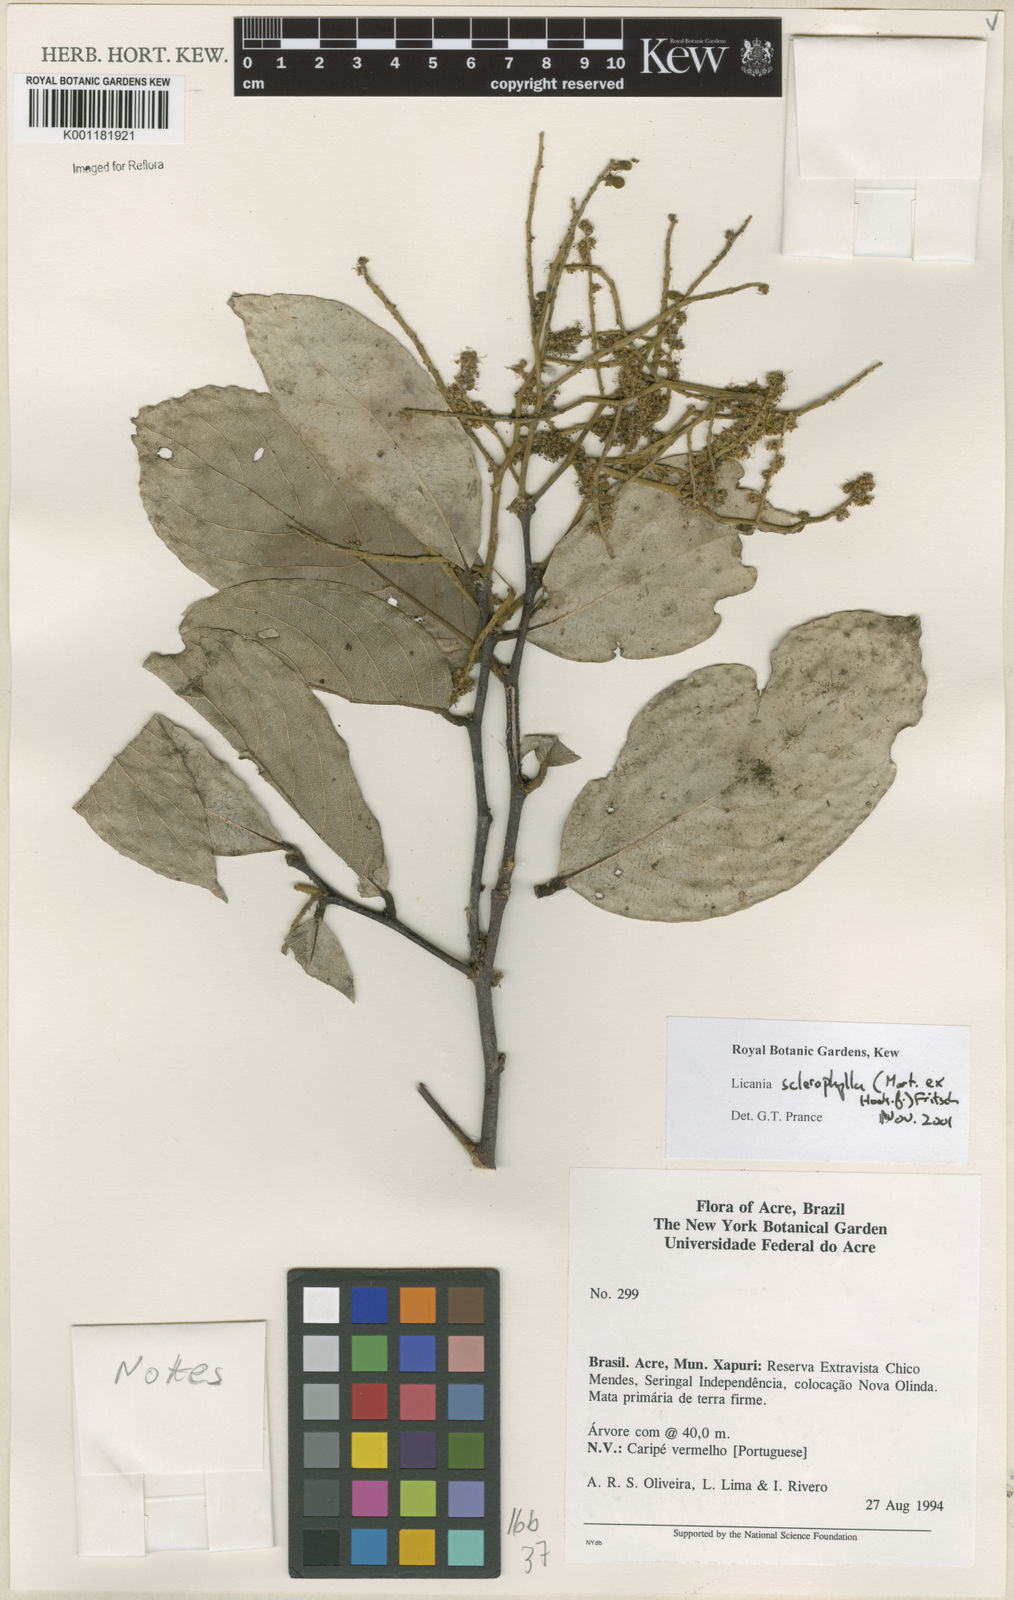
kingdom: Plantae
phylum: Tracheophyta
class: Magnoliopsida
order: Malpighiales
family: Chrysobalanaceae
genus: Leptobalanus
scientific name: Leptobalanus sclerophyllus
